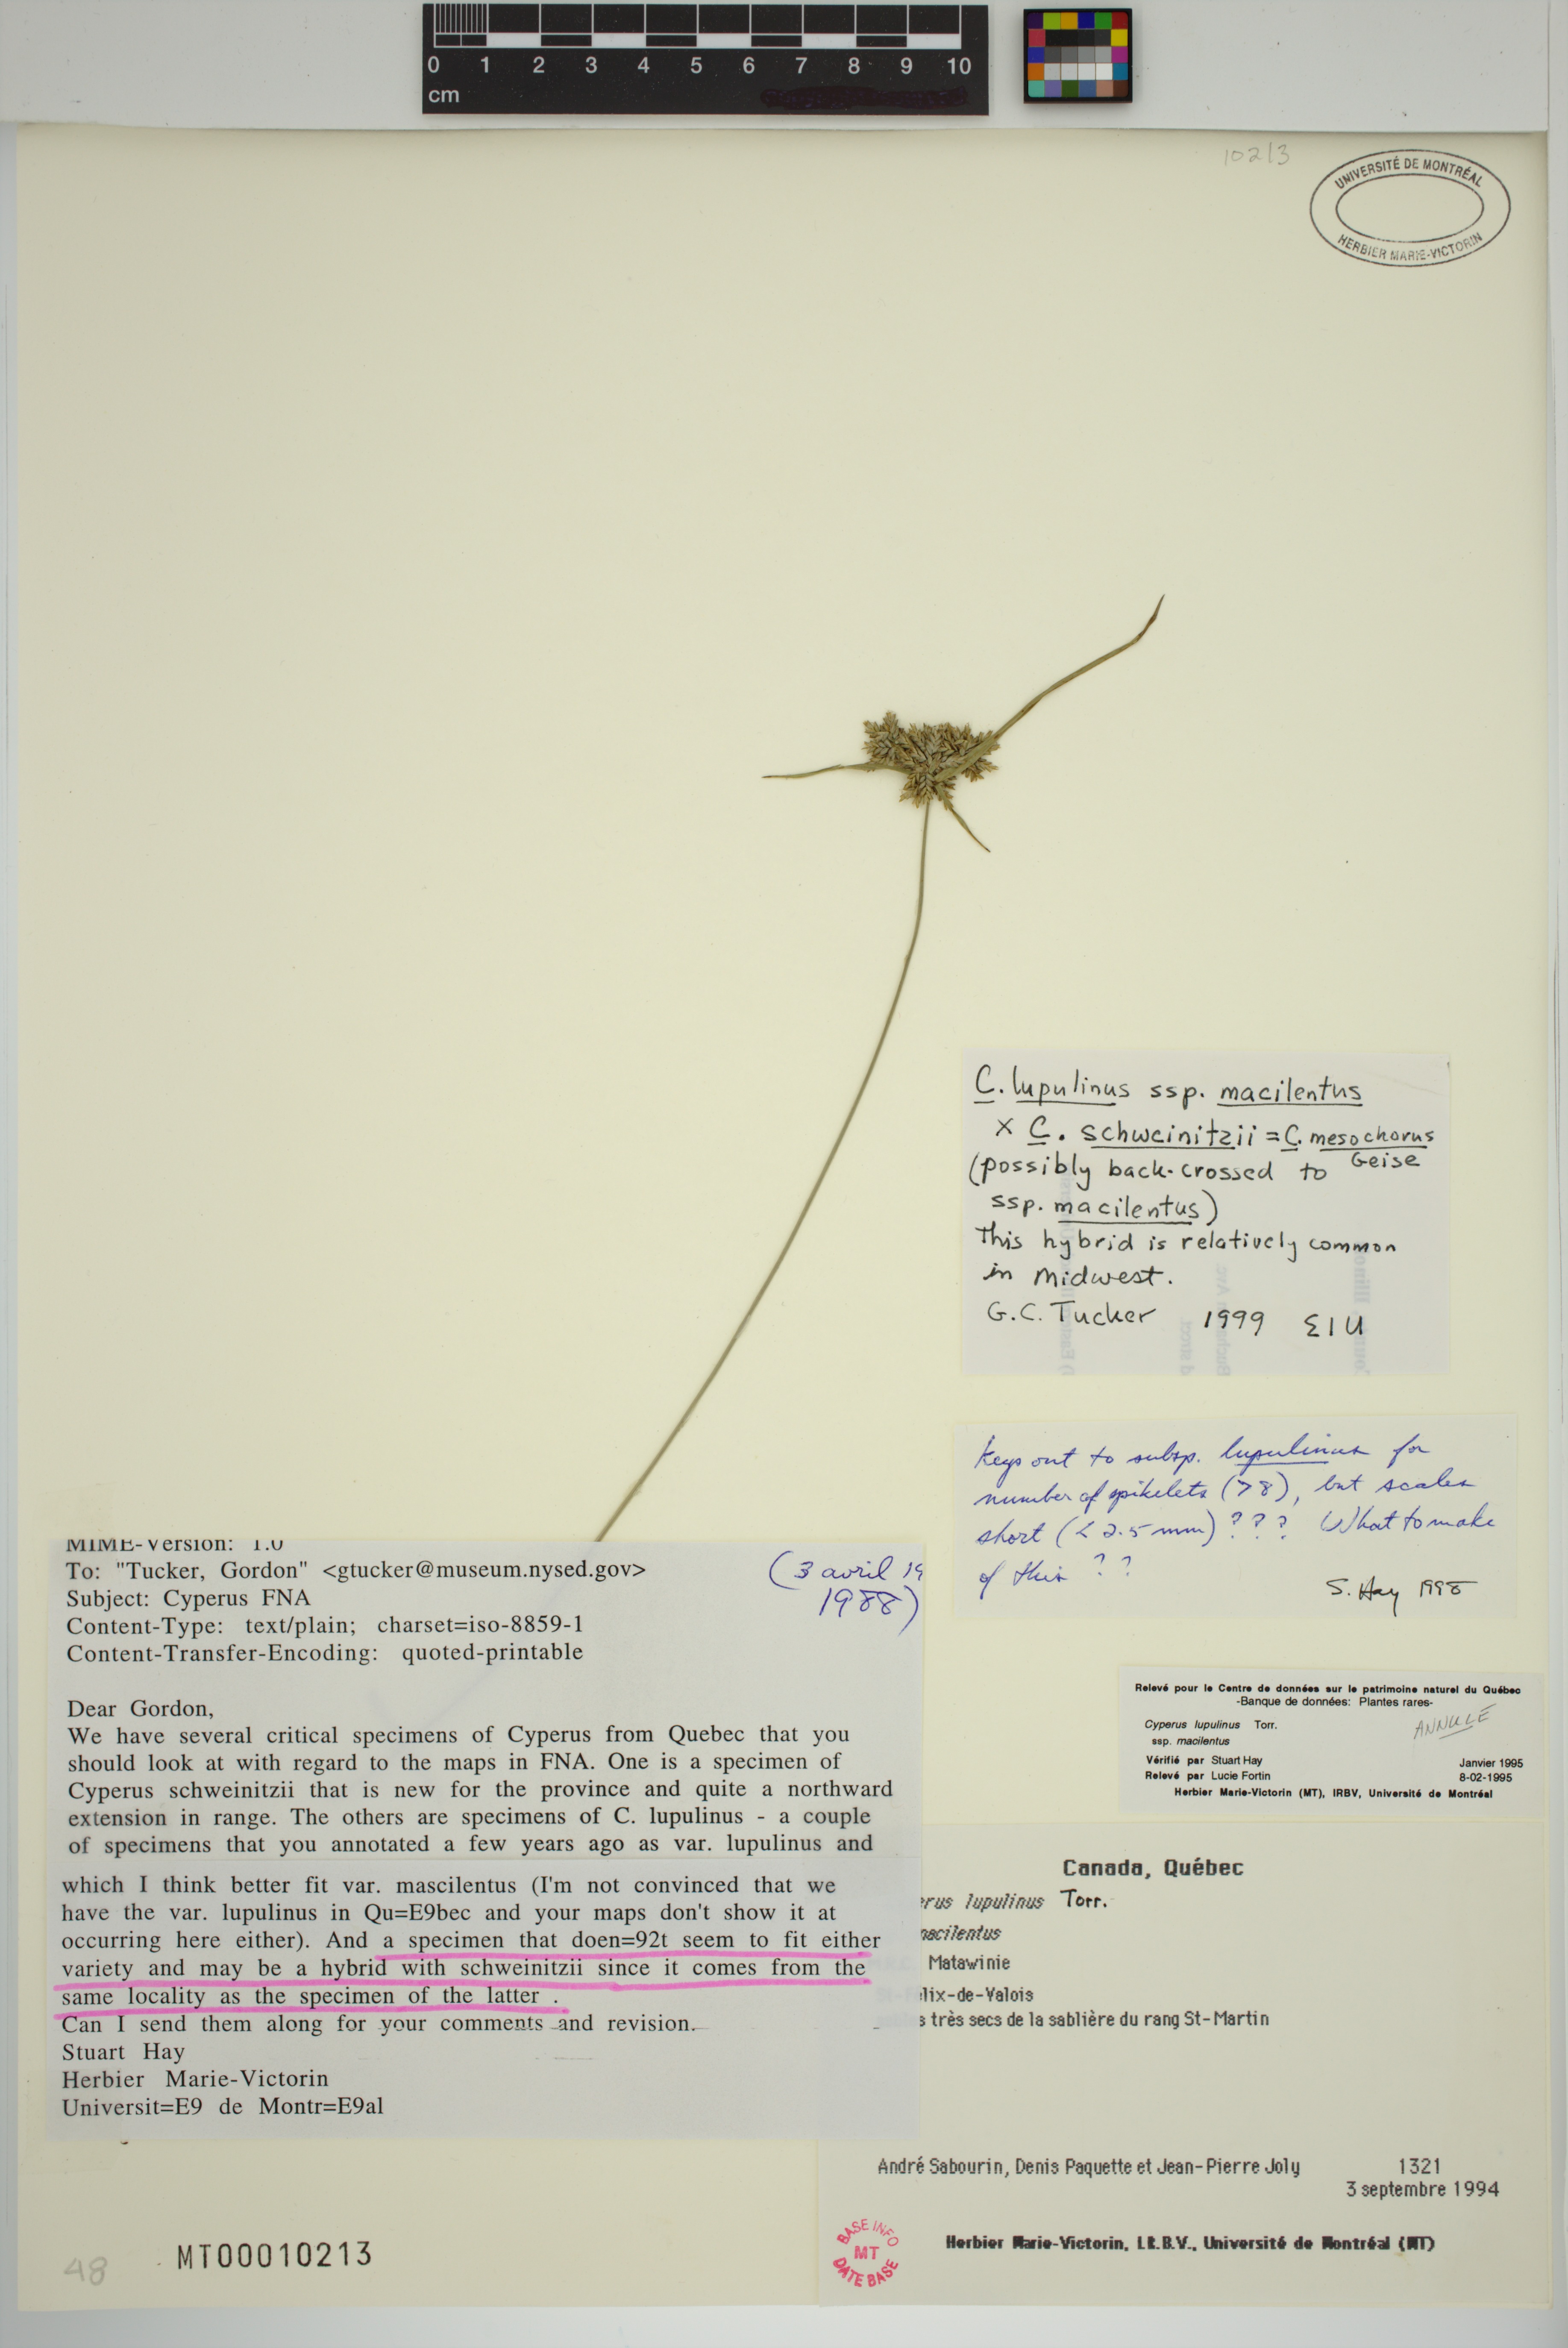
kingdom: Plantae
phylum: Tracheophyta
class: Liliopsida
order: Poales
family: Cyperaceae
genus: Cyperus
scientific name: Cyperus mesochorus
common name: Midland flatsedge
